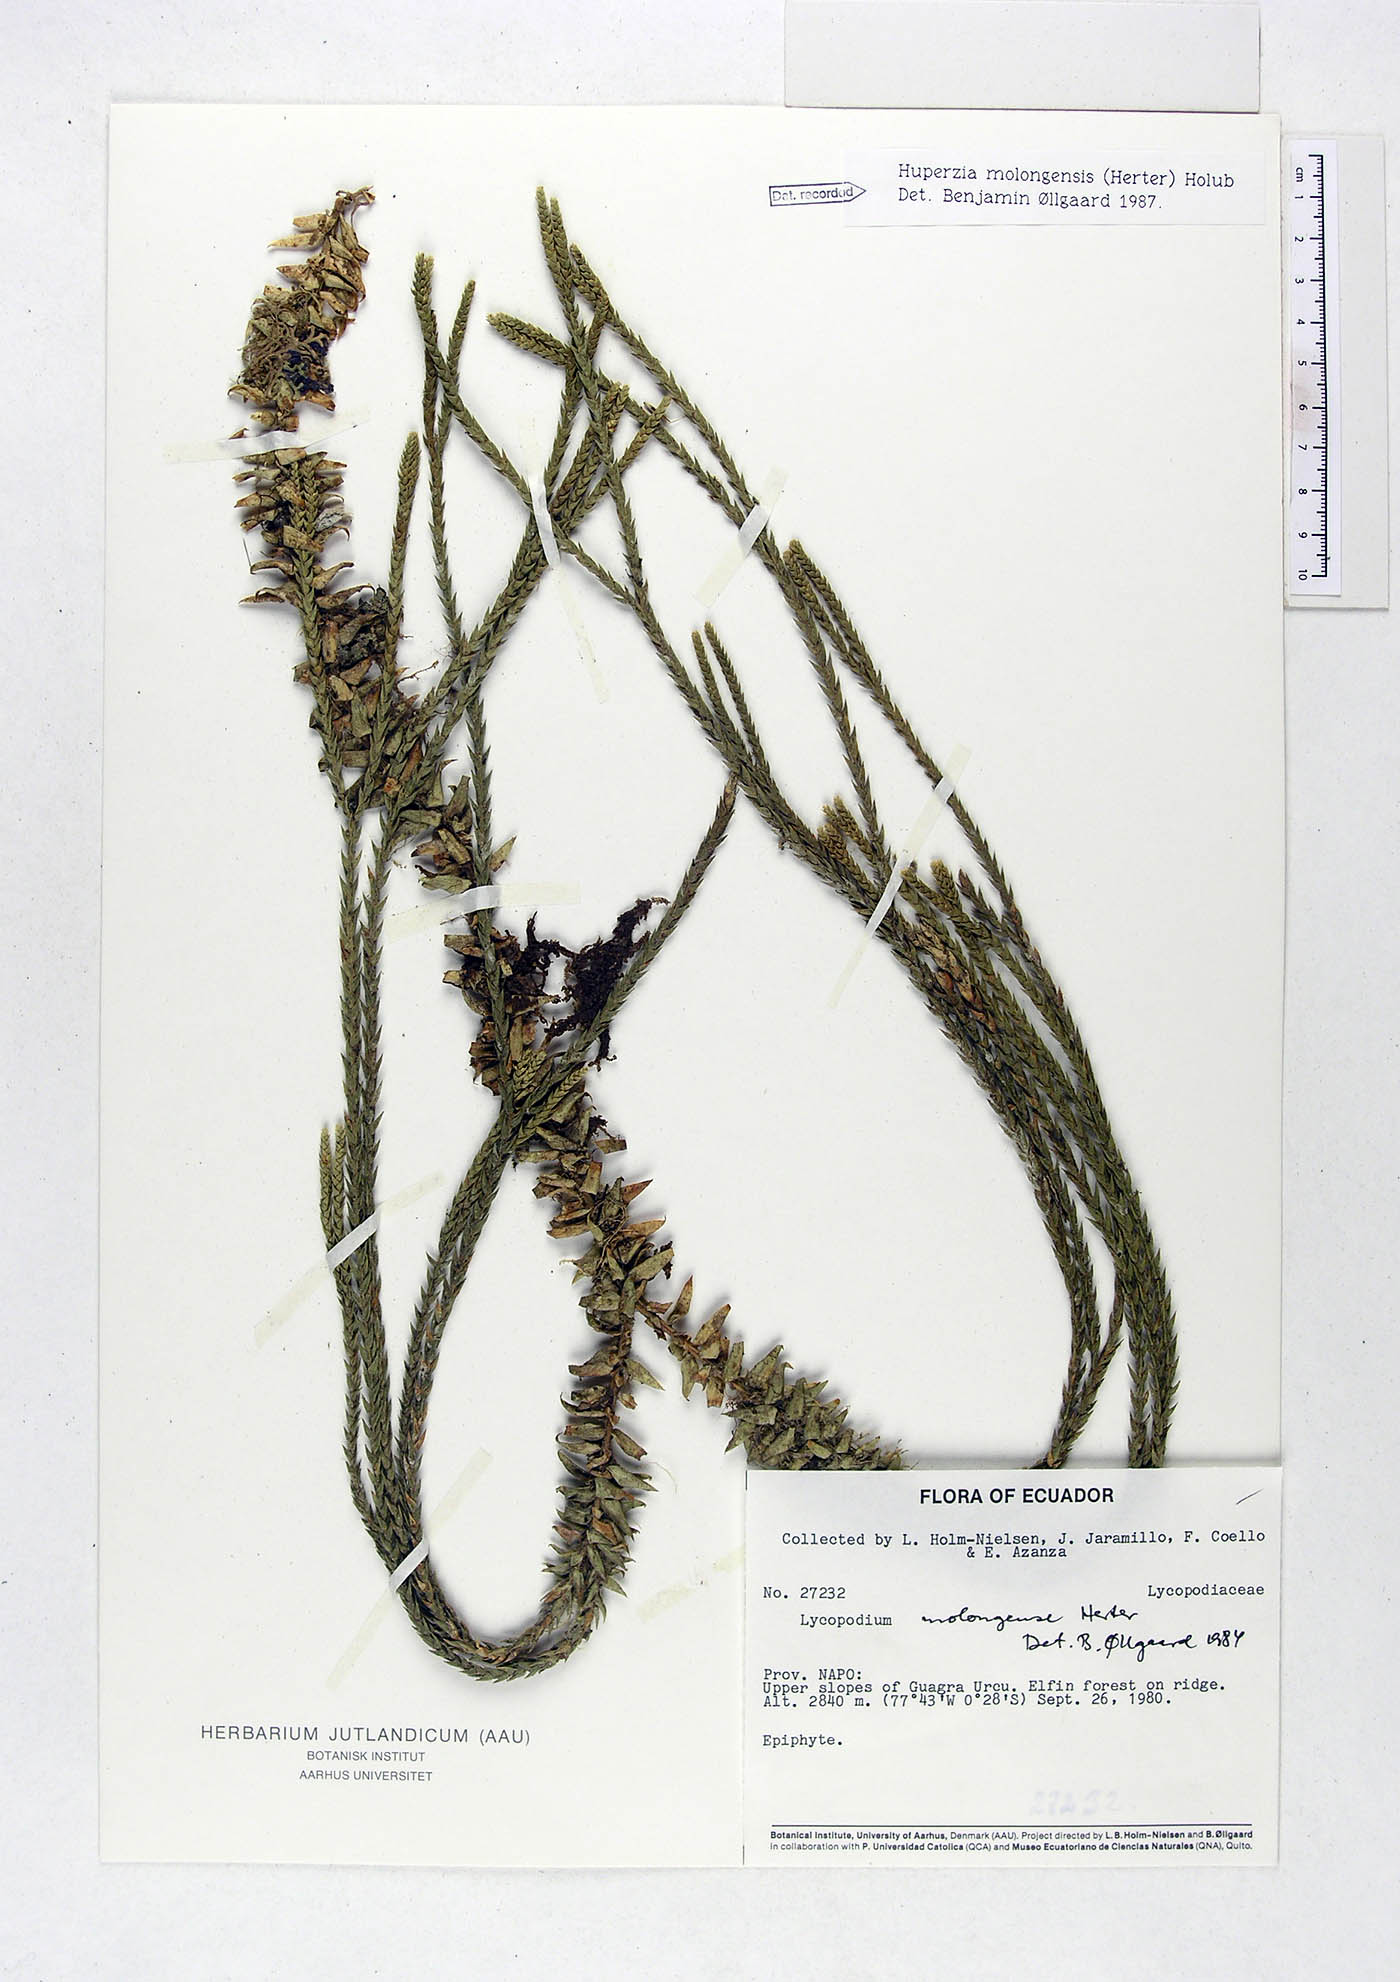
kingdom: Plantae
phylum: Tracheophyta
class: Lycopodiopsida
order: Lycopodiales
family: Lycopodiaceae
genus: Phlegmariurus
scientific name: Phlegmariurus echinatus
